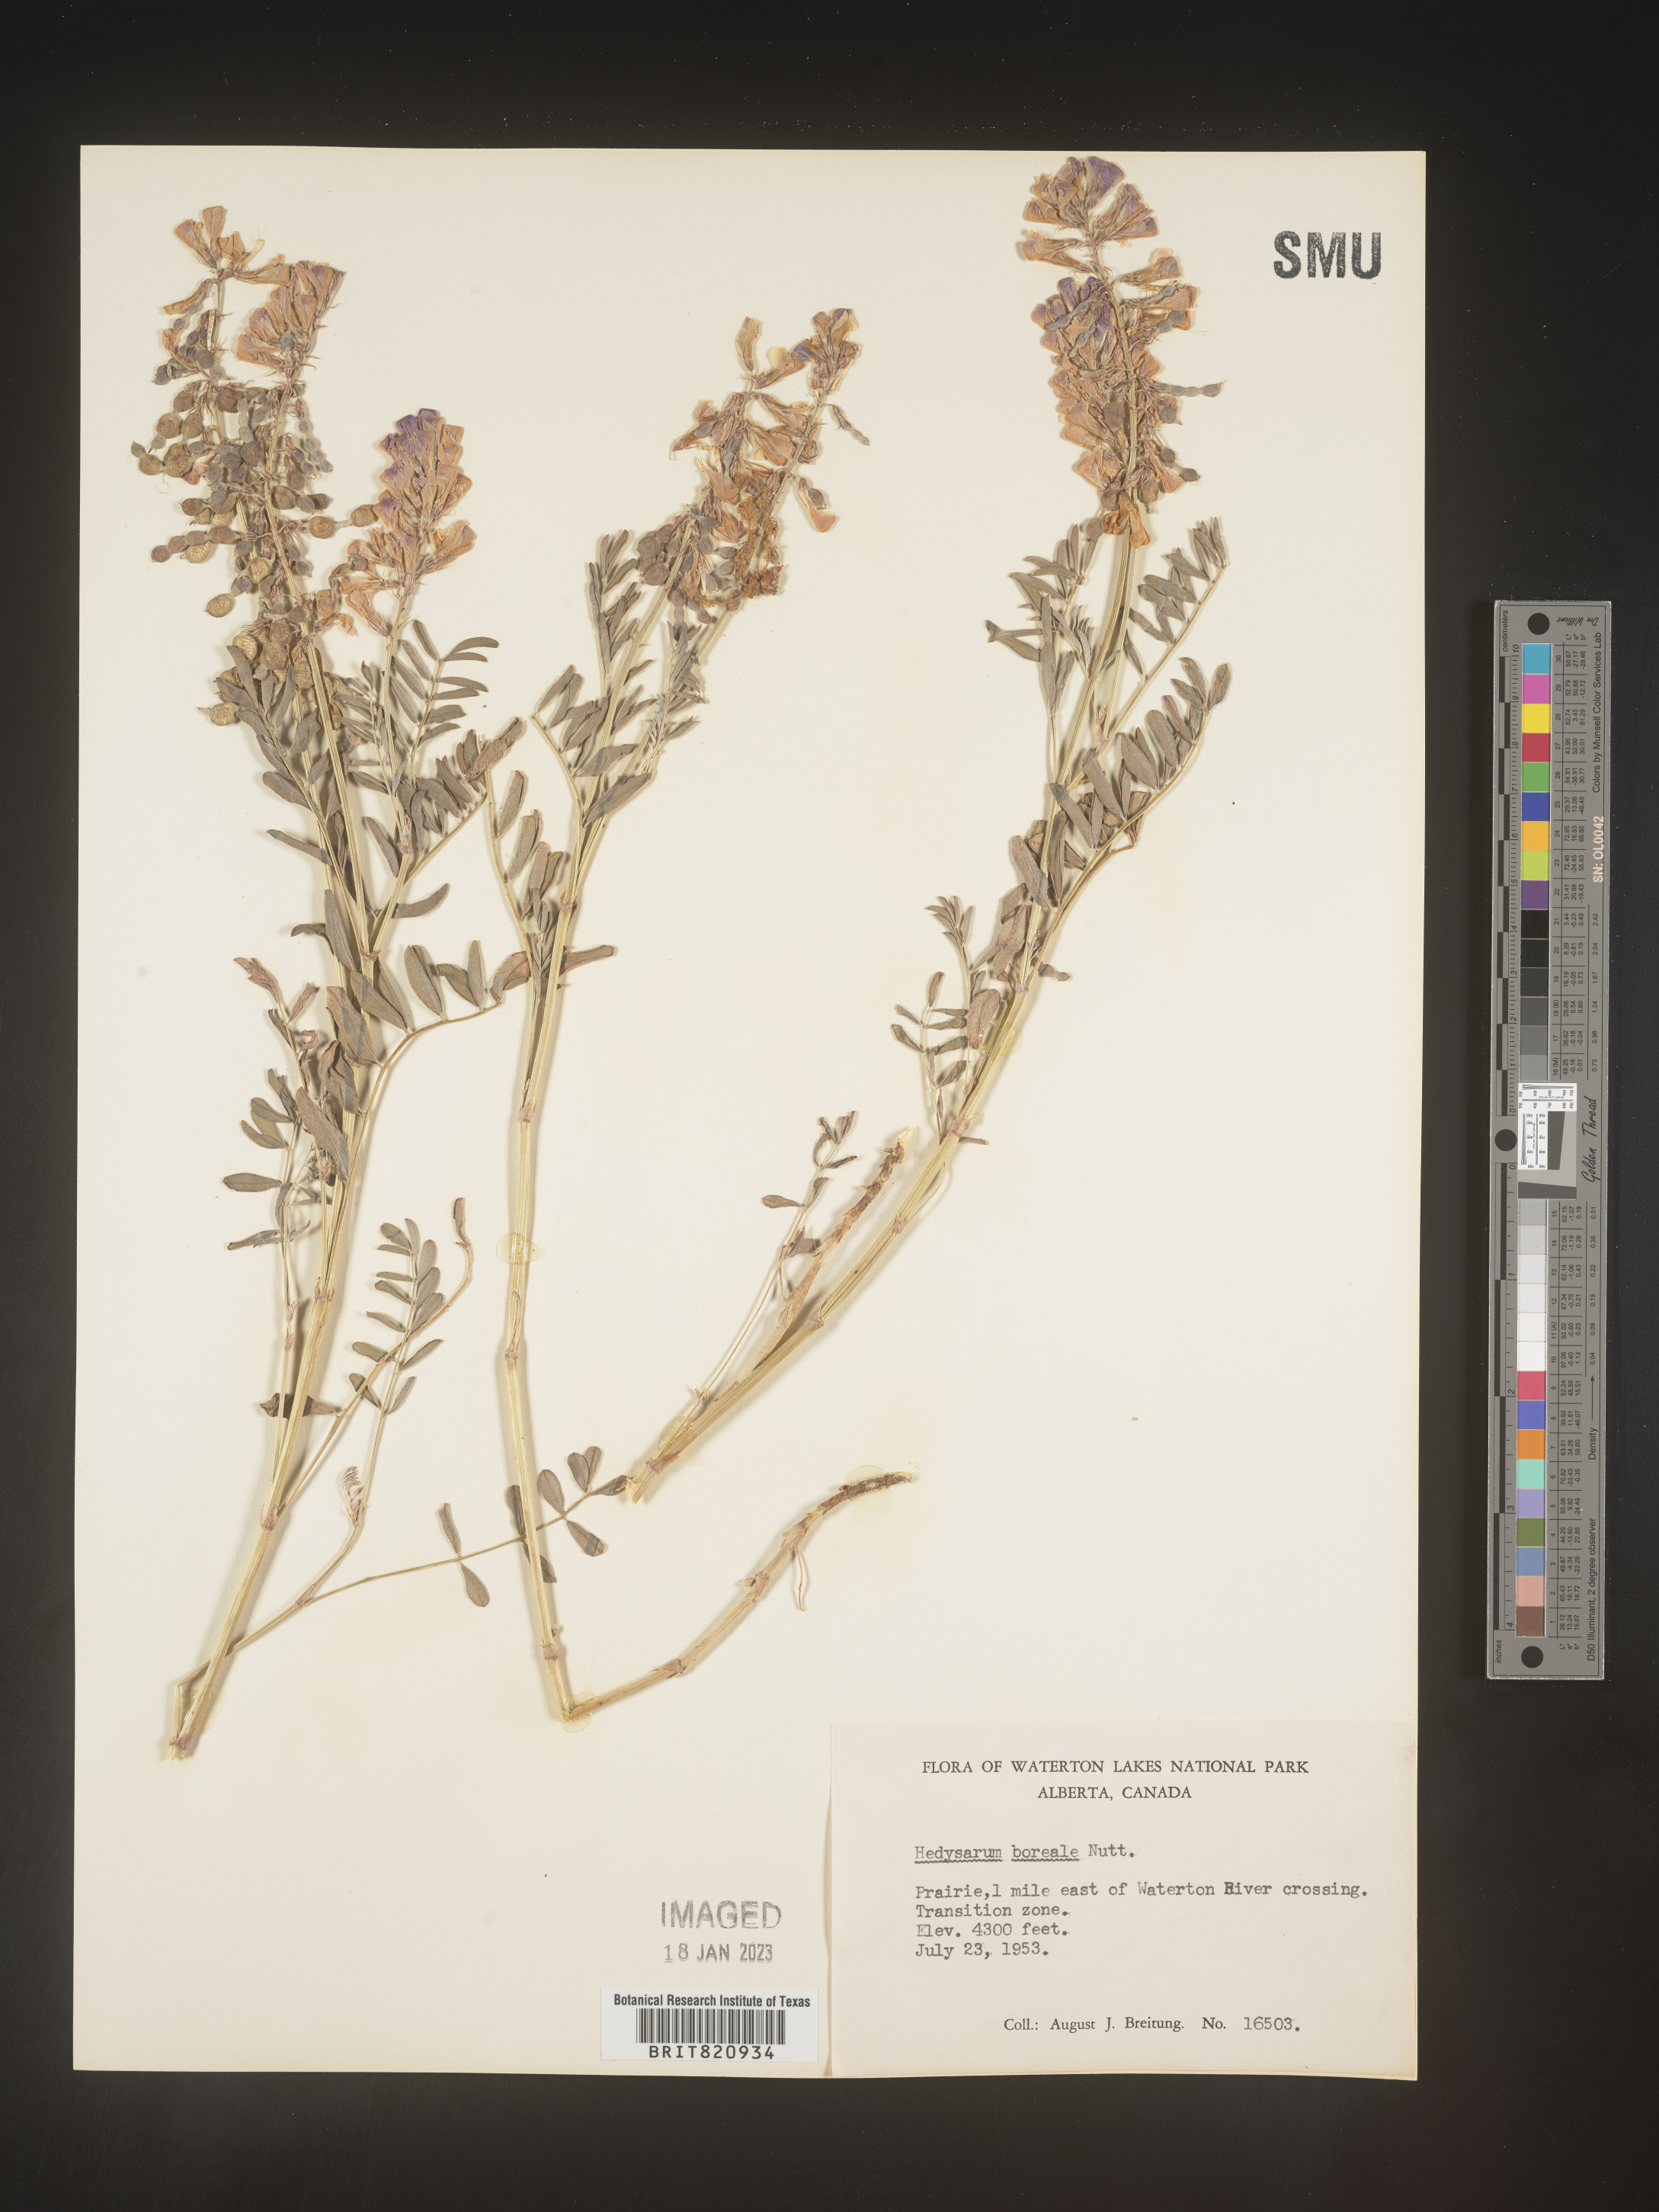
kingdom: Plantae
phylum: Tracheophyta
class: Magnoliopsida
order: Fabales
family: Fabaceae
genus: Hedysarum
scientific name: Hedysarum boreale
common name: Northern sweet-vetch
